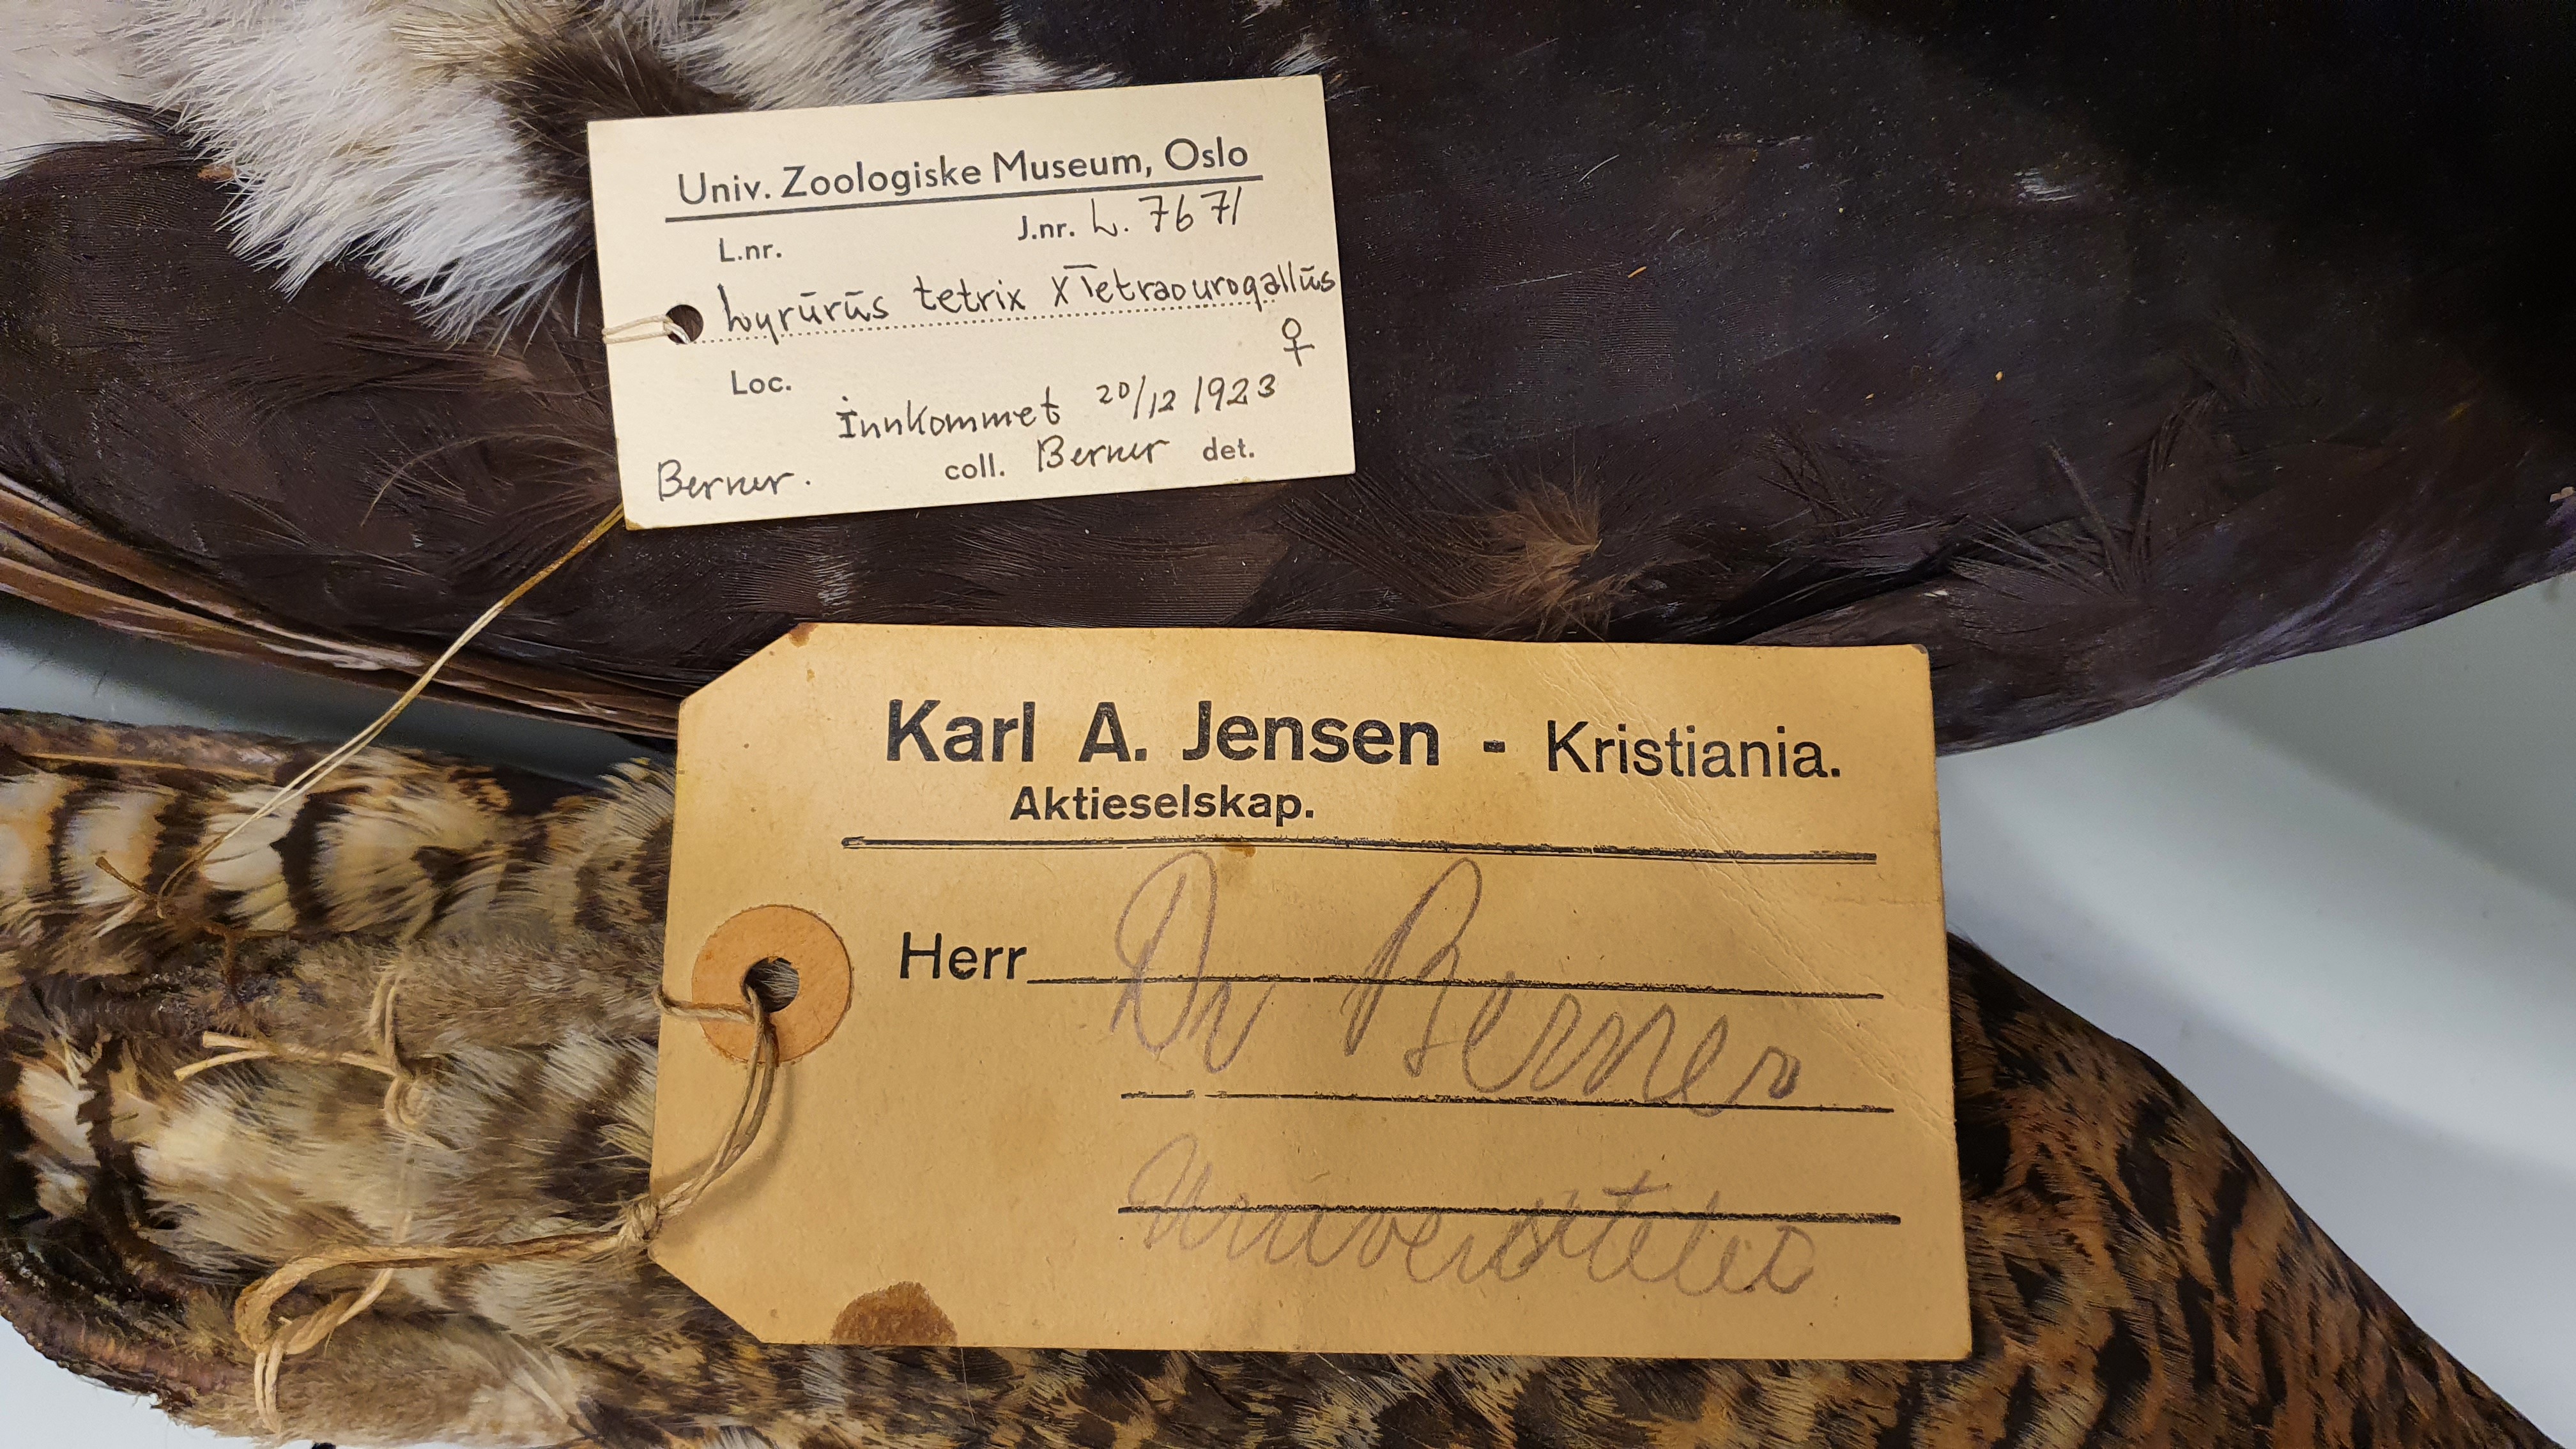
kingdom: Animalia
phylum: Chordata
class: Aves
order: Galliformes
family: Phasianidae
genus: Lyrurus
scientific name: Lyrurus
